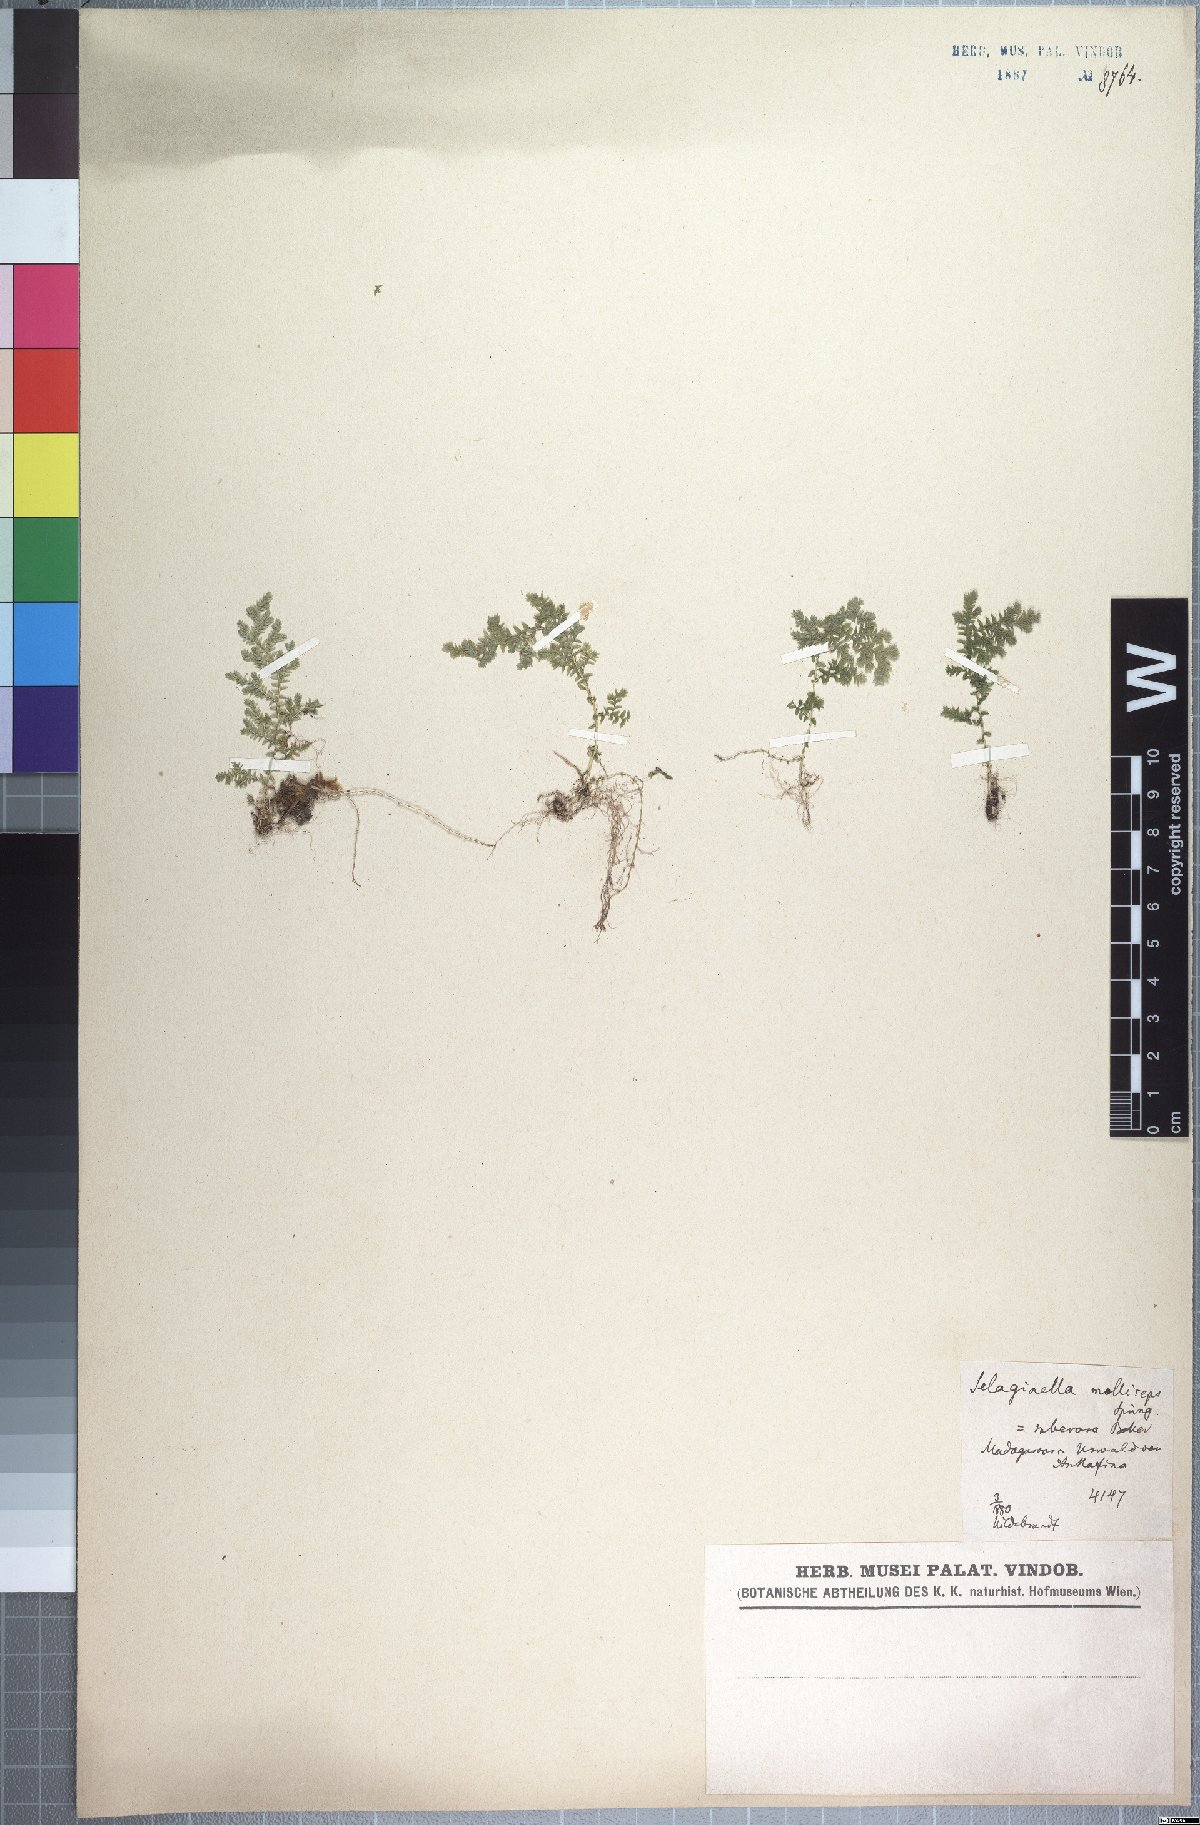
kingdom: Plantae
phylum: Tracheophyta
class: Lycopodiopsida
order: Selaginellales
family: Selaginellaceae
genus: Selaginella
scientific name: Selaginella goudotiana
